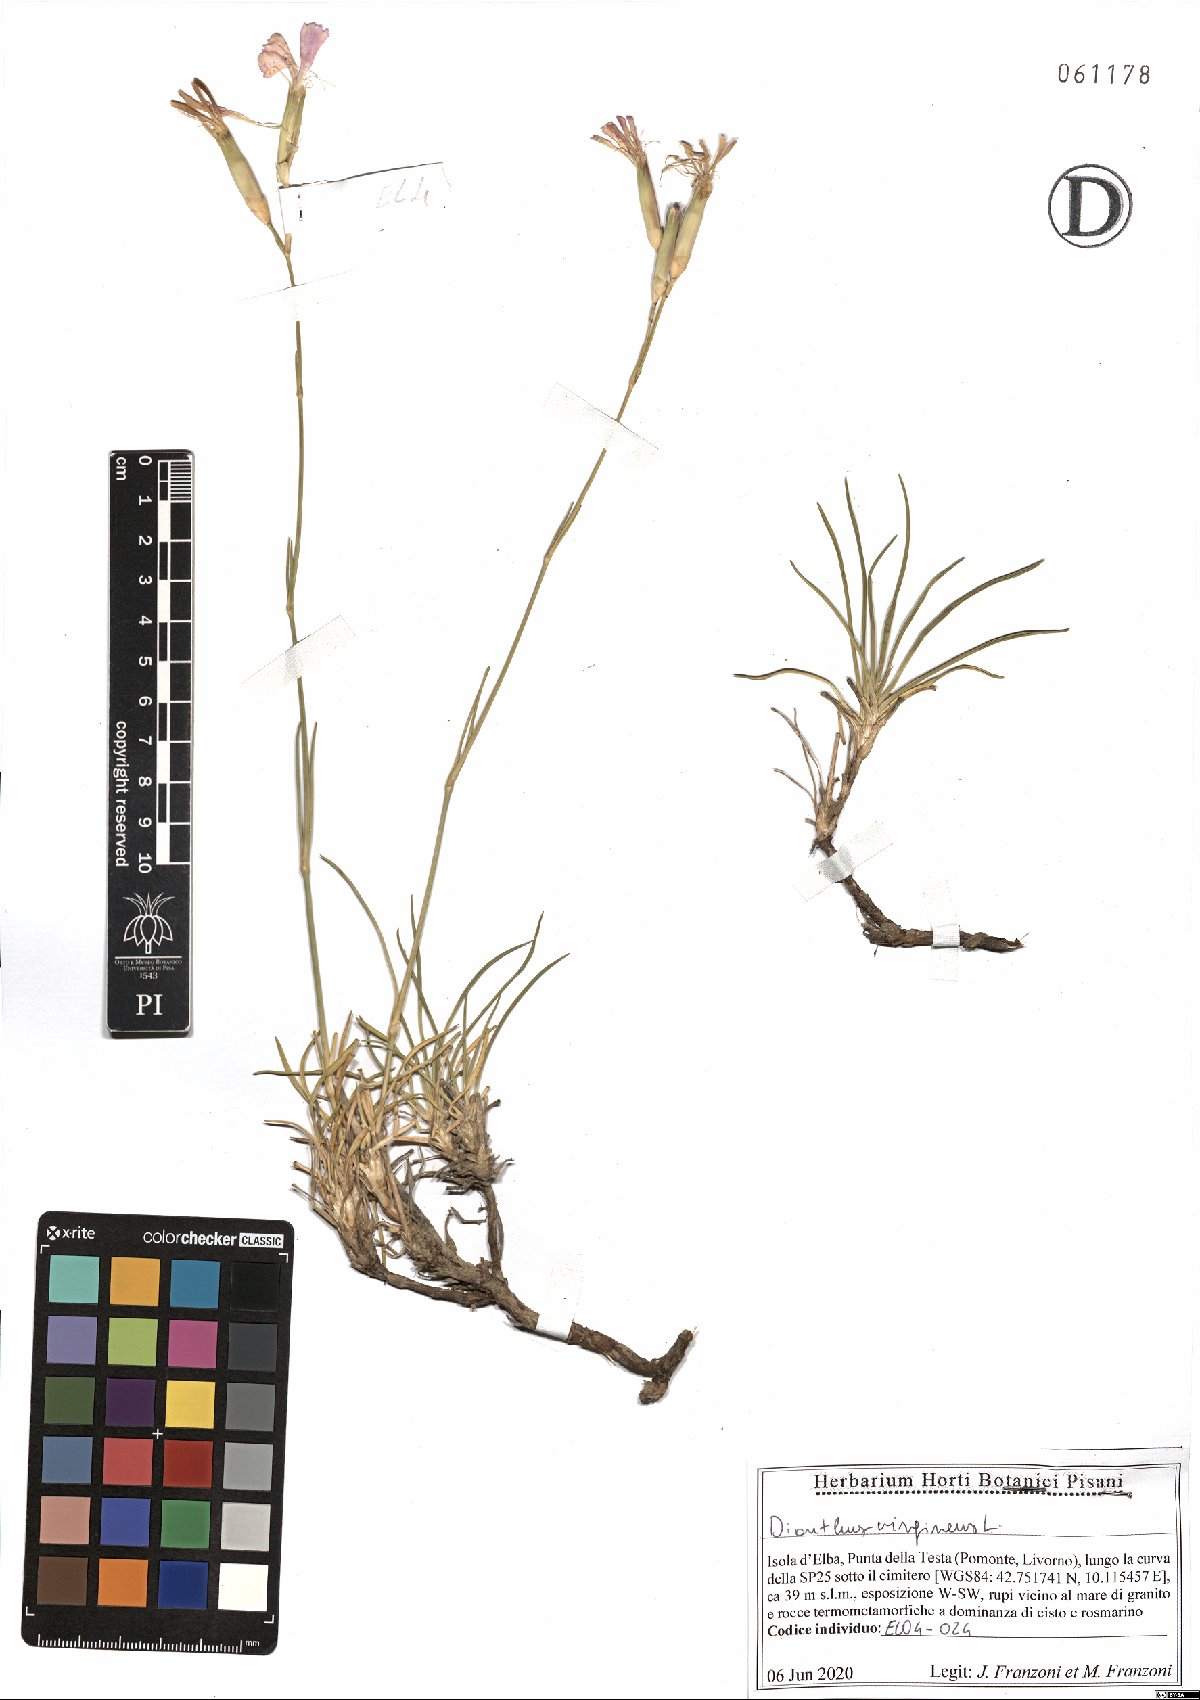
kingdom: Plantae
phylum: Tracheophyta
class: Magnoliopsida
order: Caryophyllales
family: Caryophyllaceae
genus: Dianthus
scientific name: Dianthus virgineus
